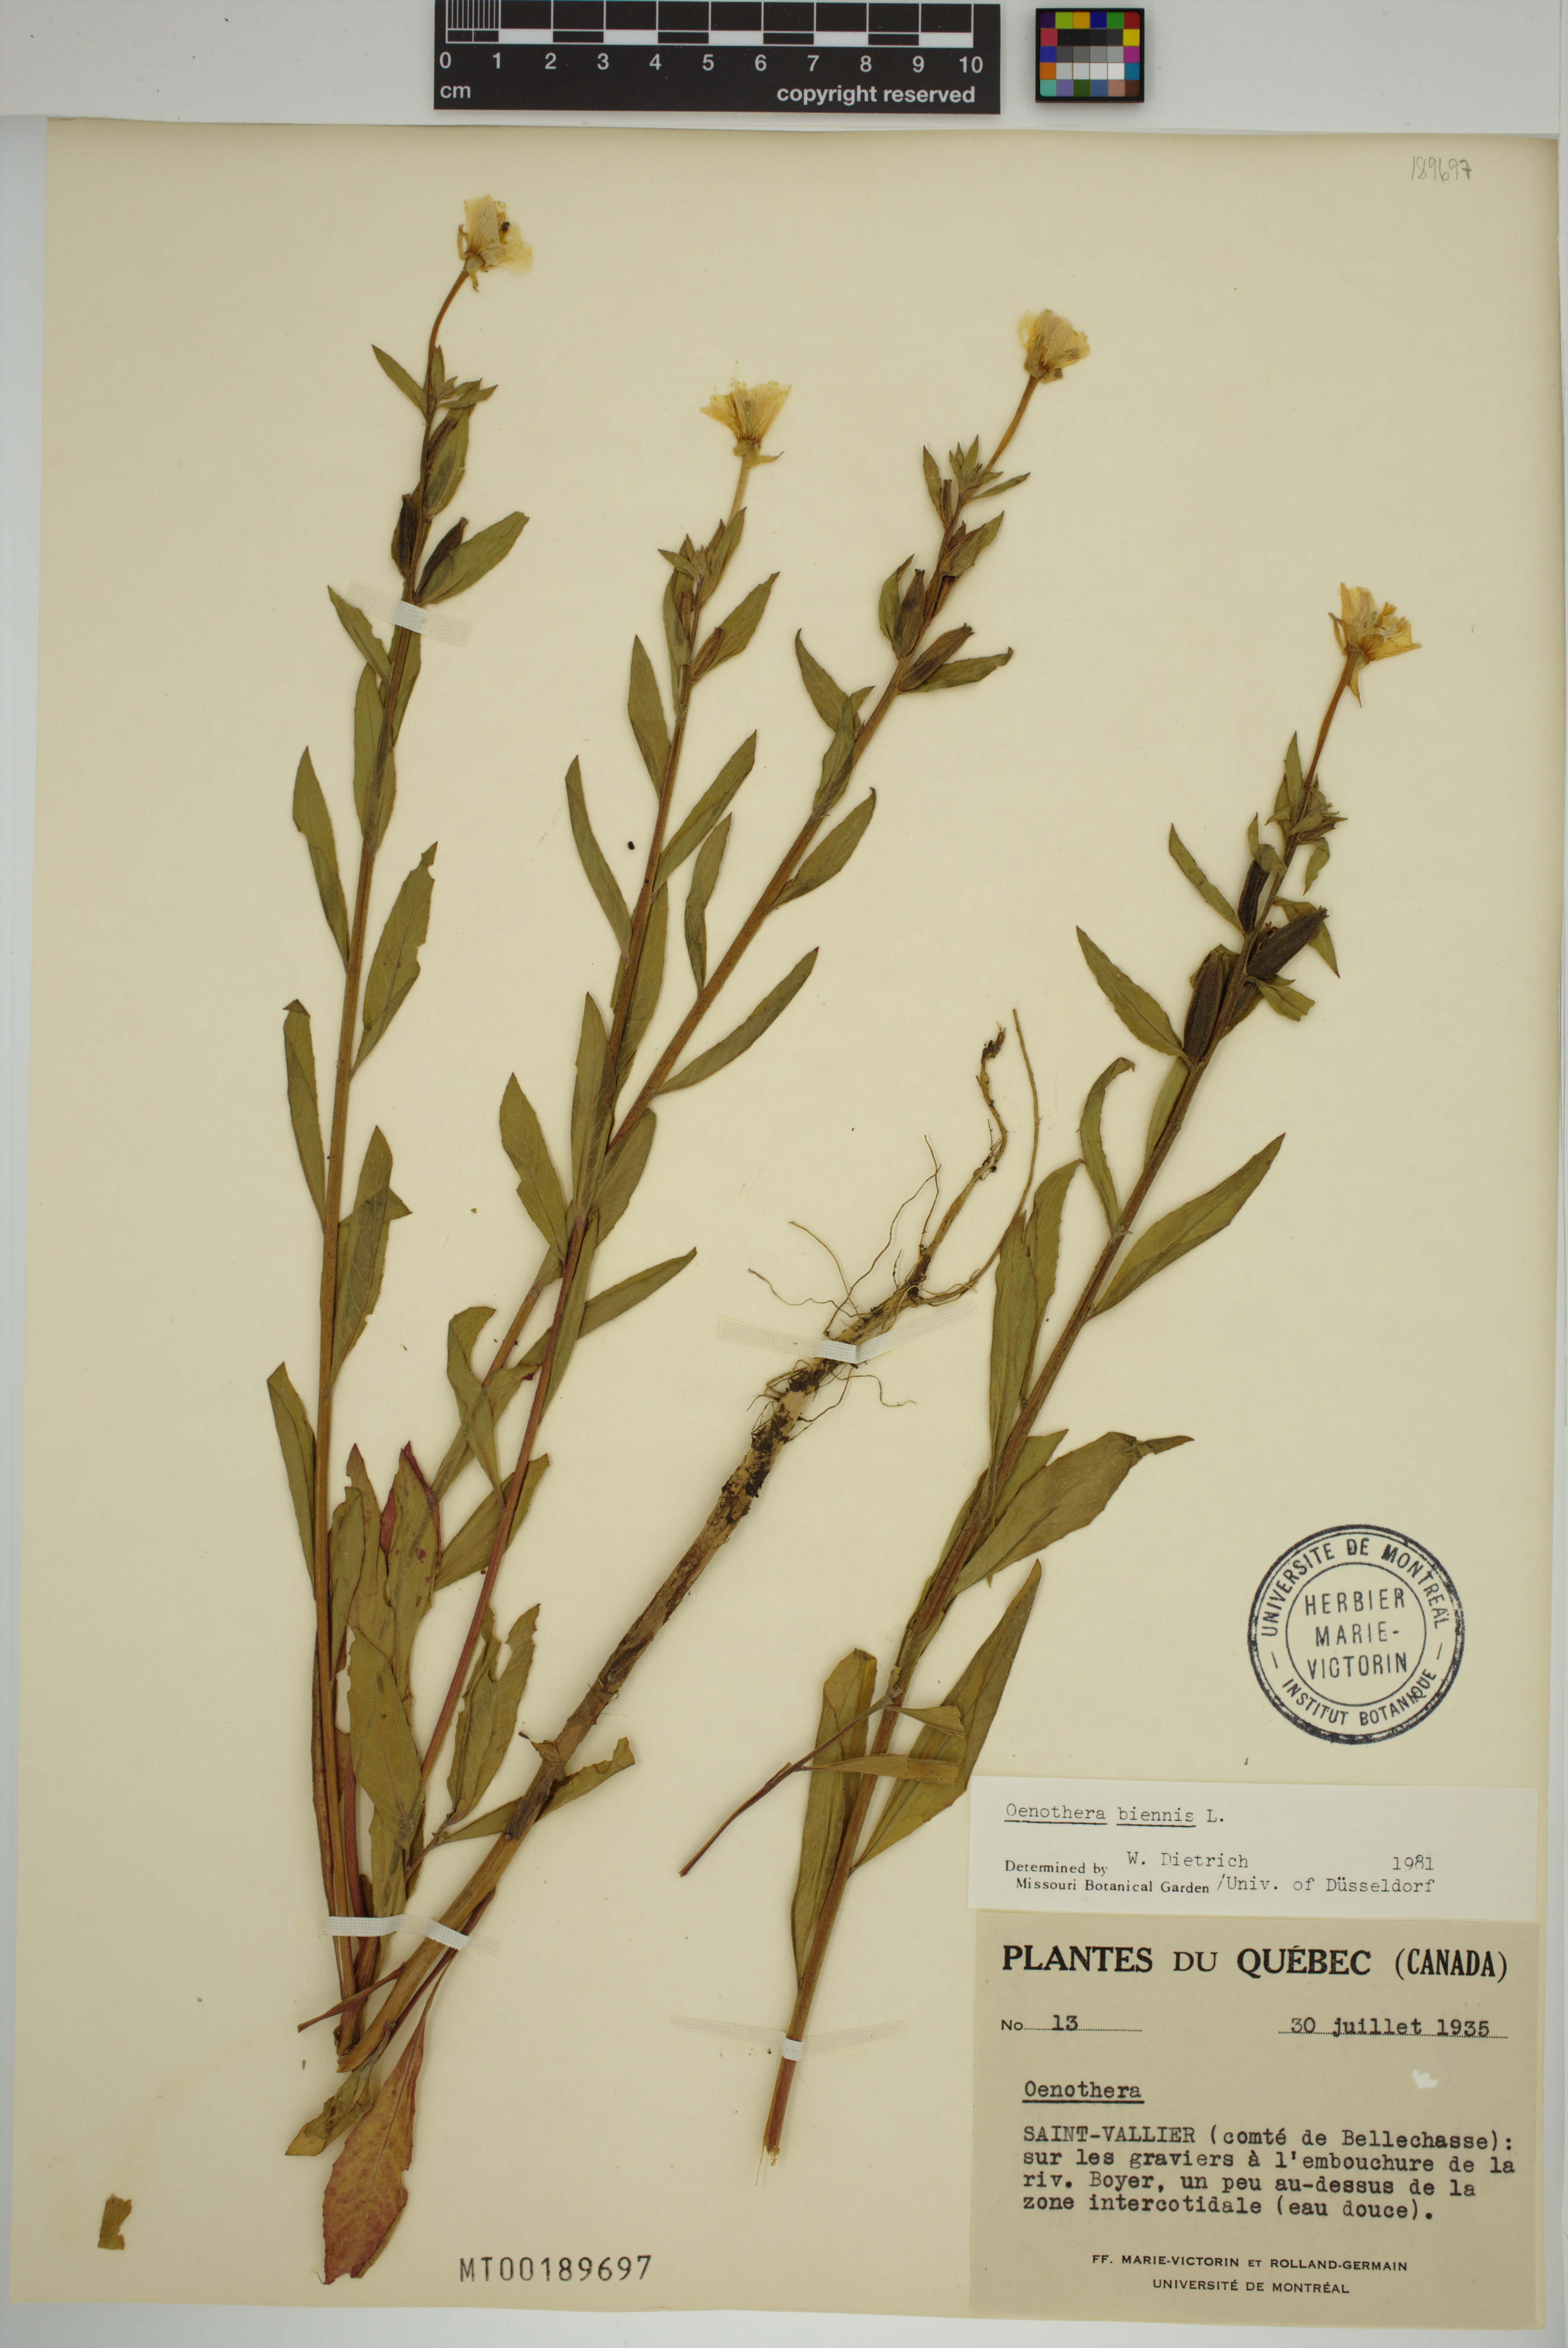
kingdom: Plantae
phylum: Tracheophyta
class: Magnoliopsida
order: Myrtales
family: Onagraceae
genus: Oenothera
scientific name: Oenothera biennis
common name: Common evening-primrose
